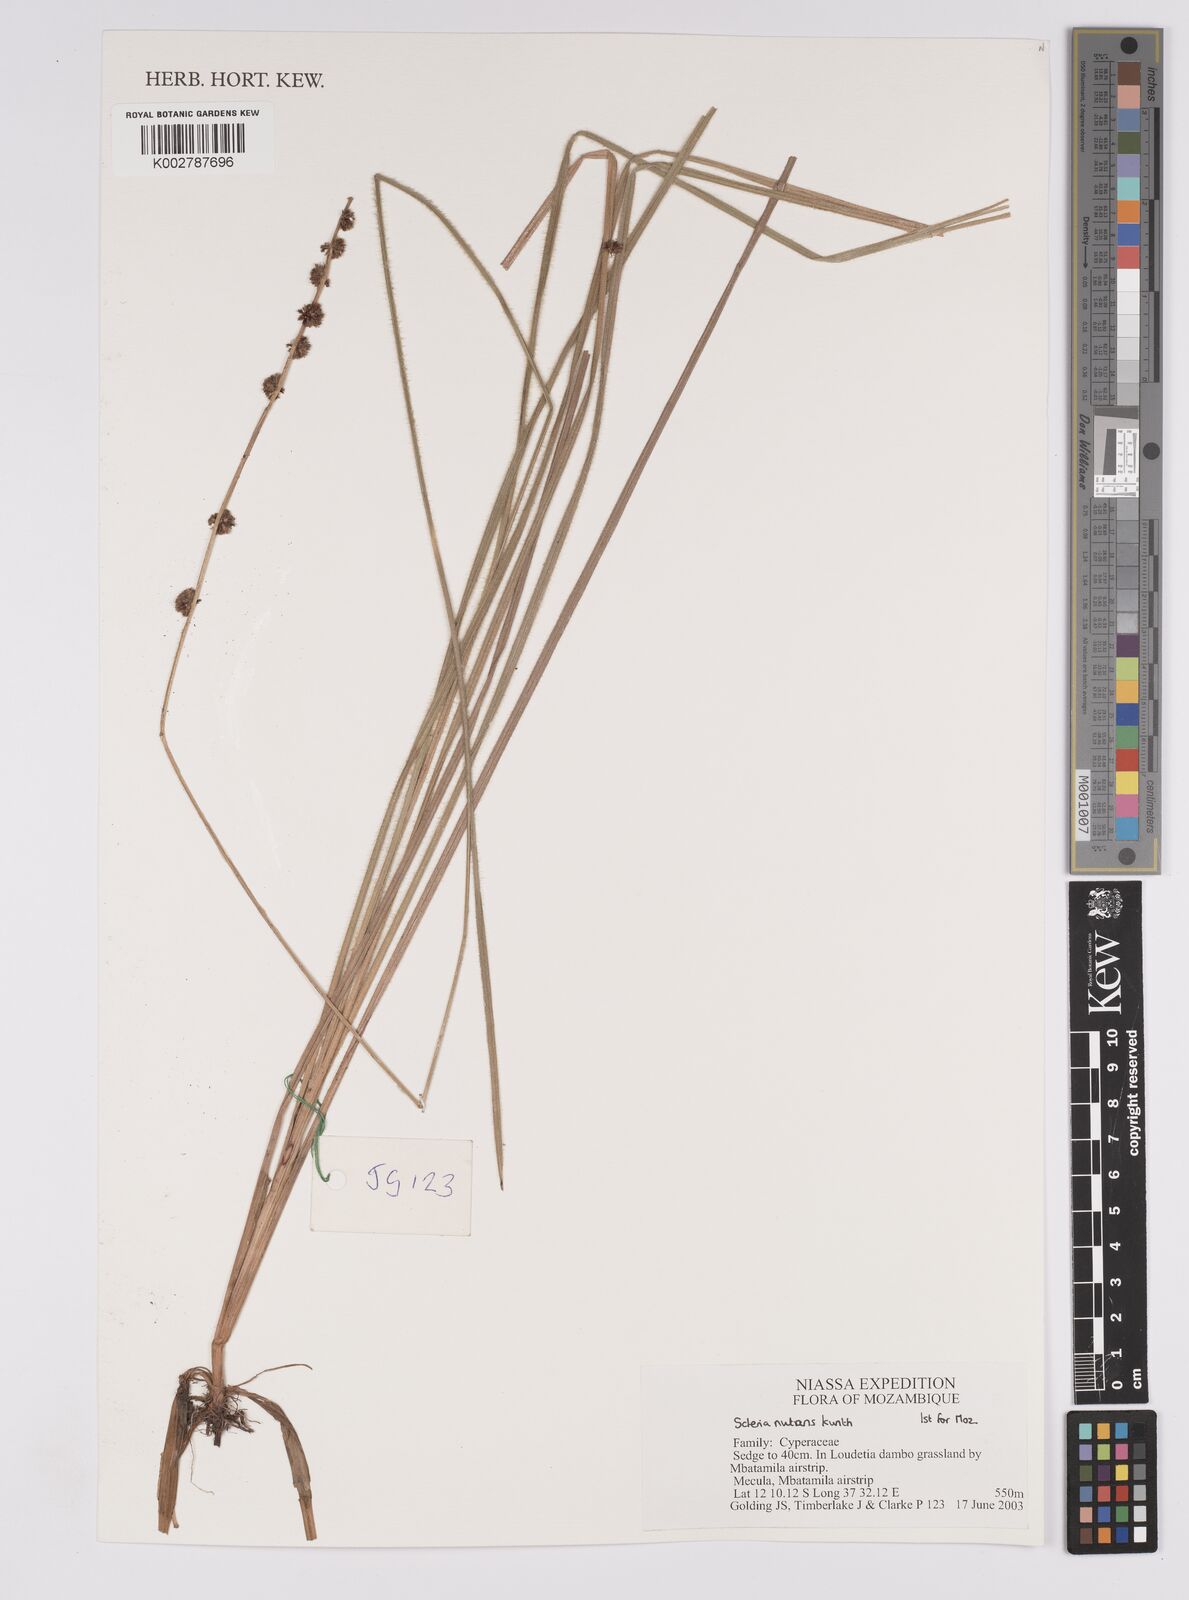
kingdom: Plantae
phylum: Tracheophyta
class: Liliopsida
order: Poales
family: Cyperaceae
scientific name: Cyperaceae
